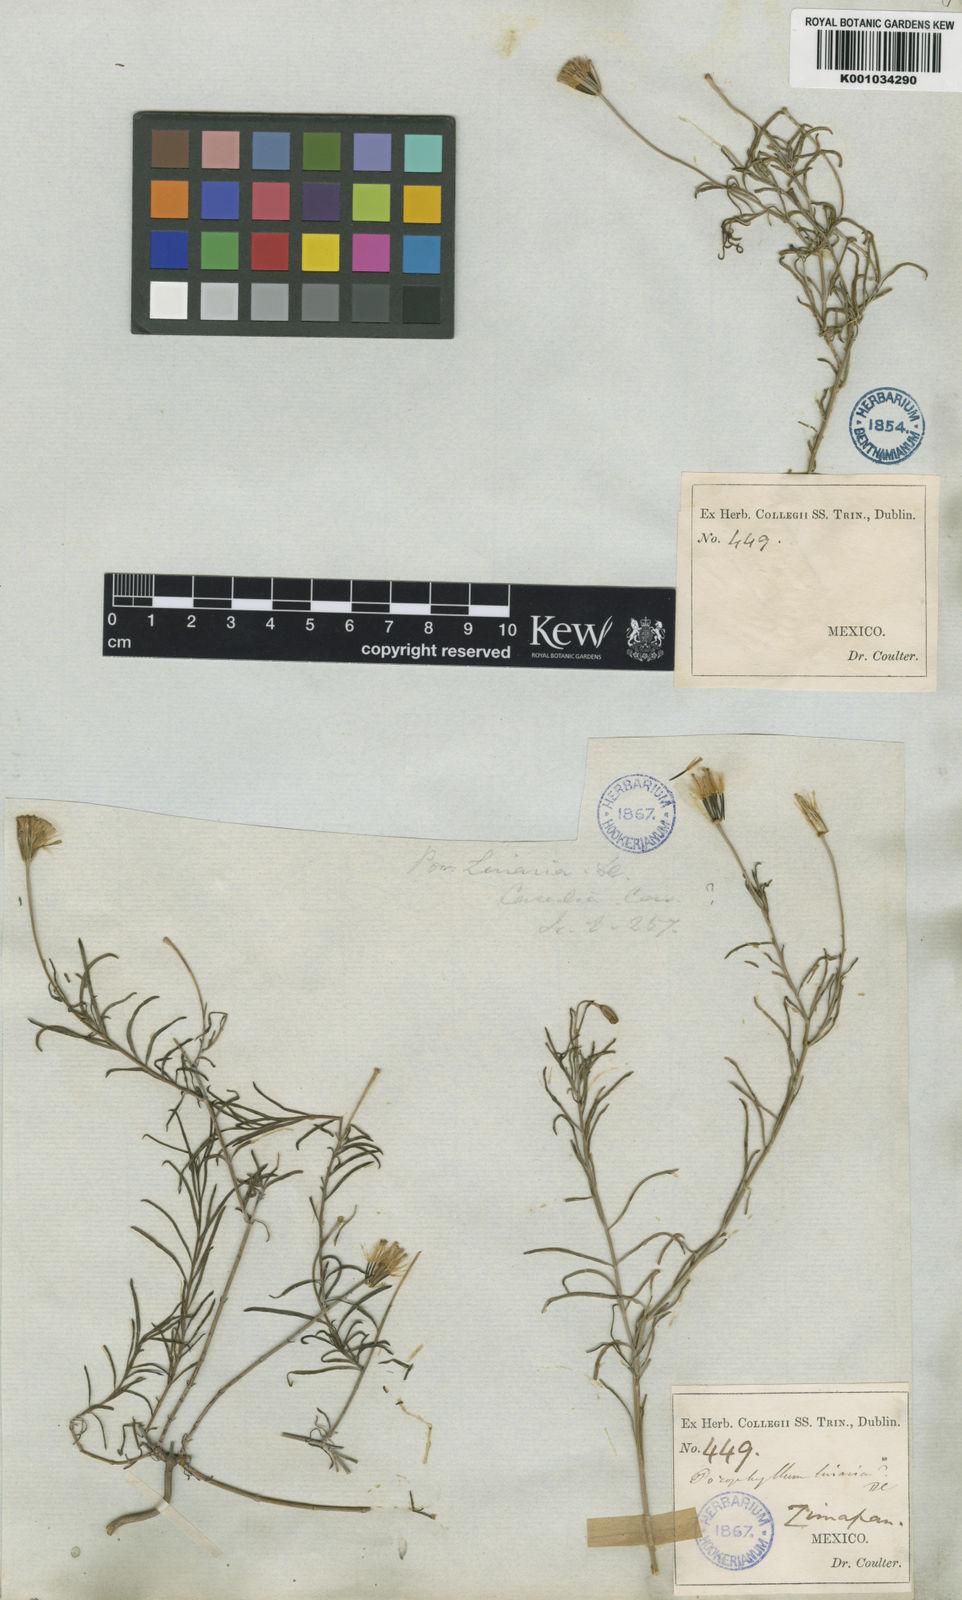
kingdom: Plantae
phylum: Tracheophyta
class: Magnoliopsida
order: Asterales
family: Asteraceae
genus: Porophyllum
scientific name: Porophyllum linaria
